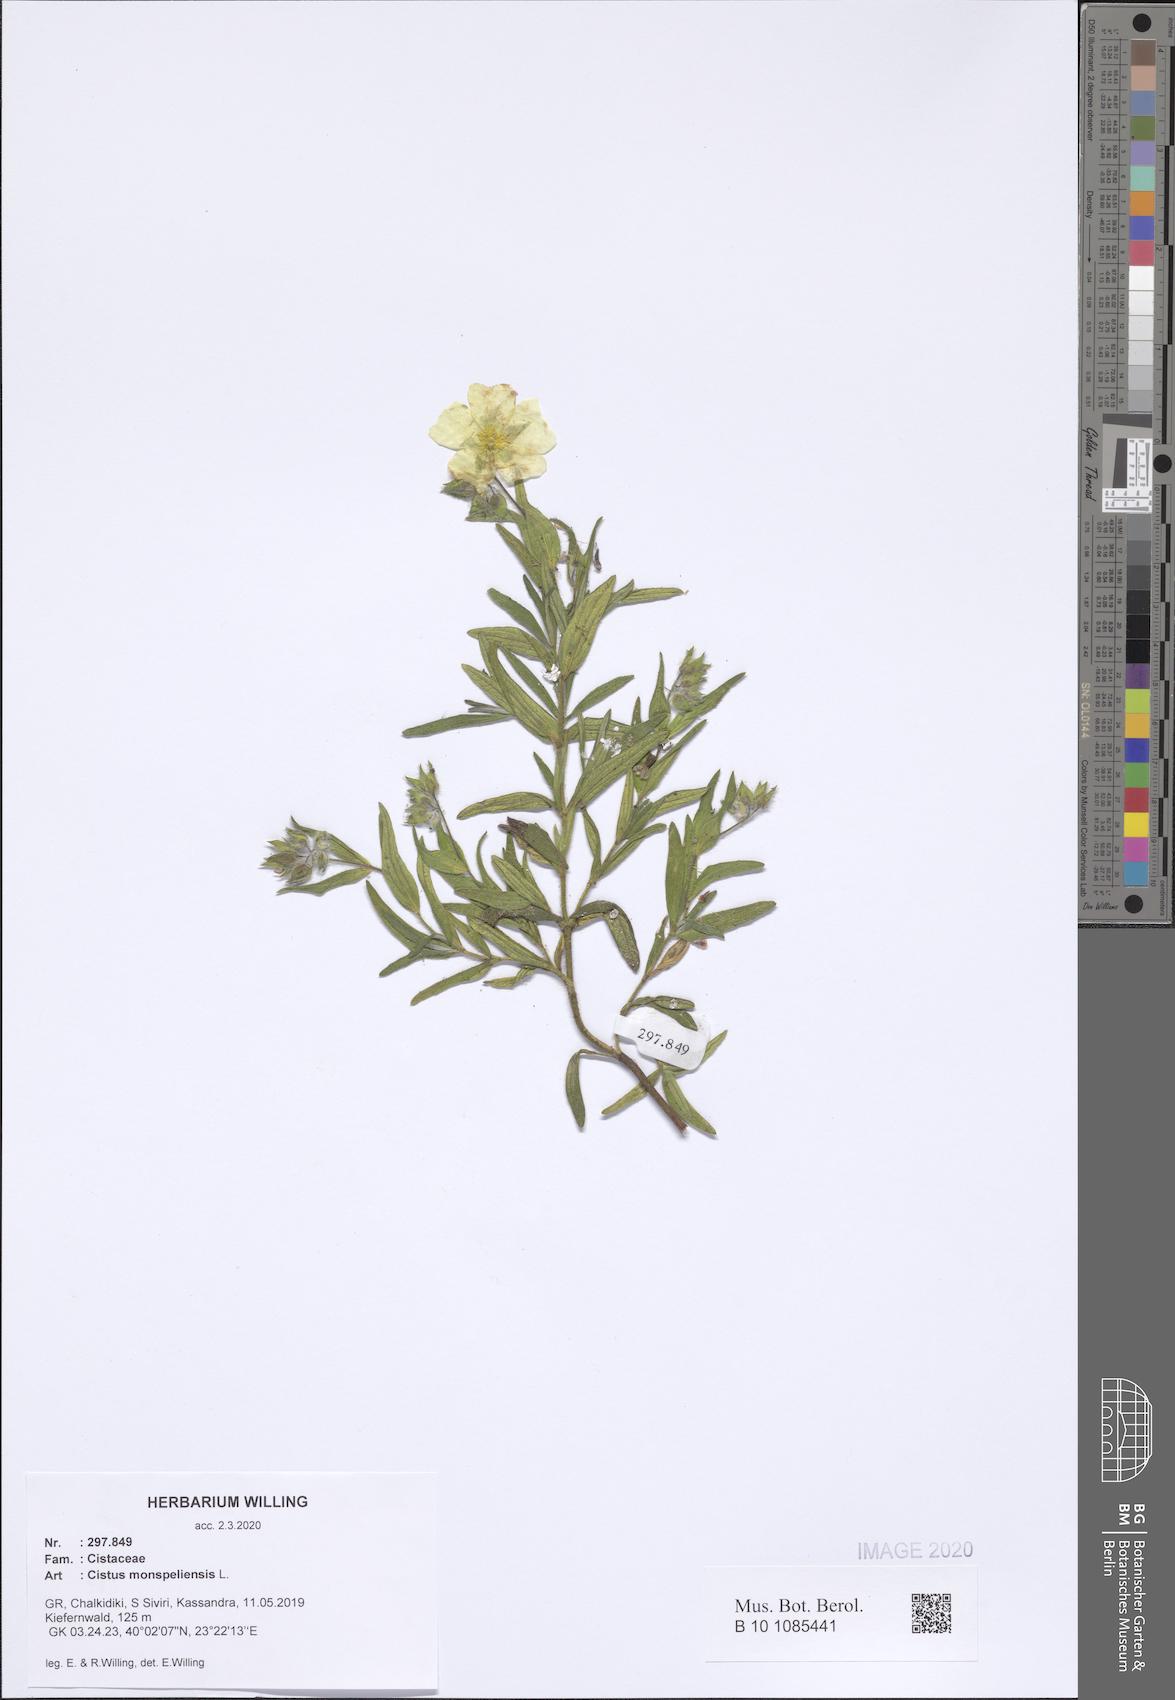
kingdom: Plantae
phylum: Tracheophyta
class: Magnoliopsida
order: Malvales
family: Cistaceae
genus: Cistus
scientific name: Cistus monspeliensis
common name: Montpelier cistus
